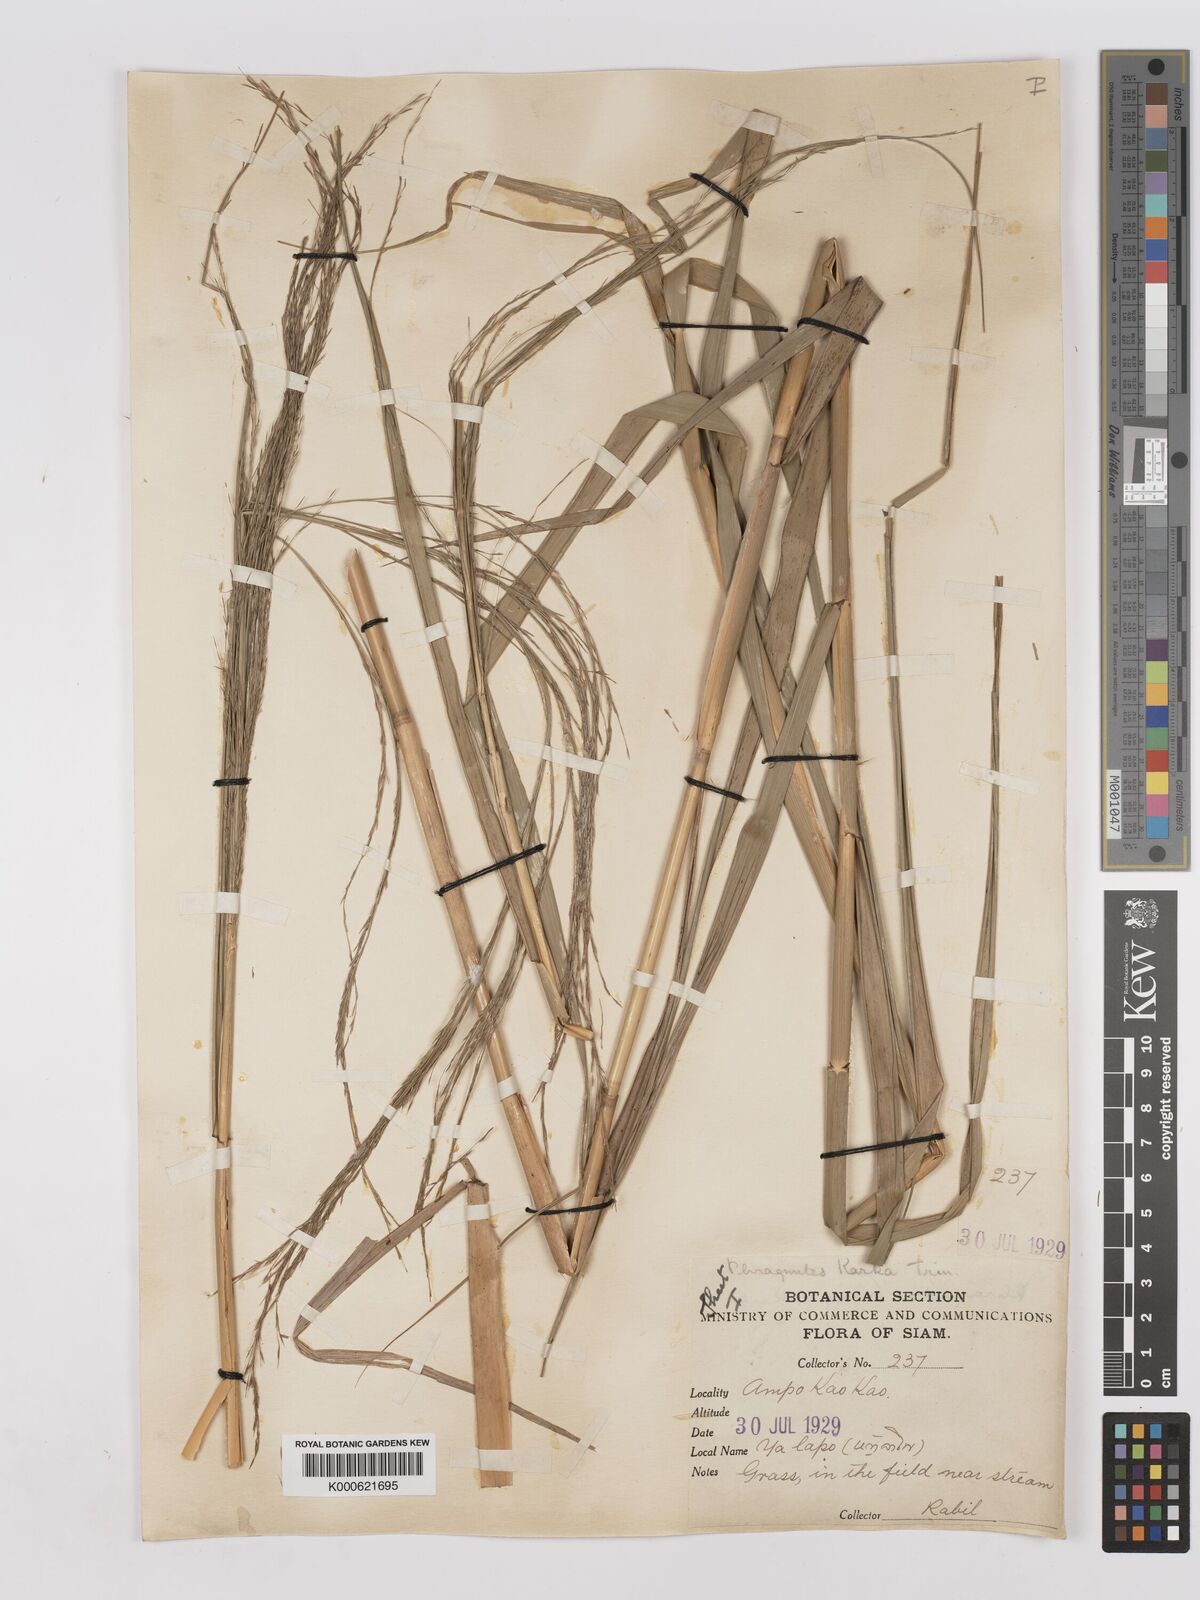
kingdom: Plantae
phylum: Tracheophyta
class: Liliopsida
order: Poales
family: Poaceae
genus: Phragmites
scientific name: Phragmites karka
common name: Tropical reed
